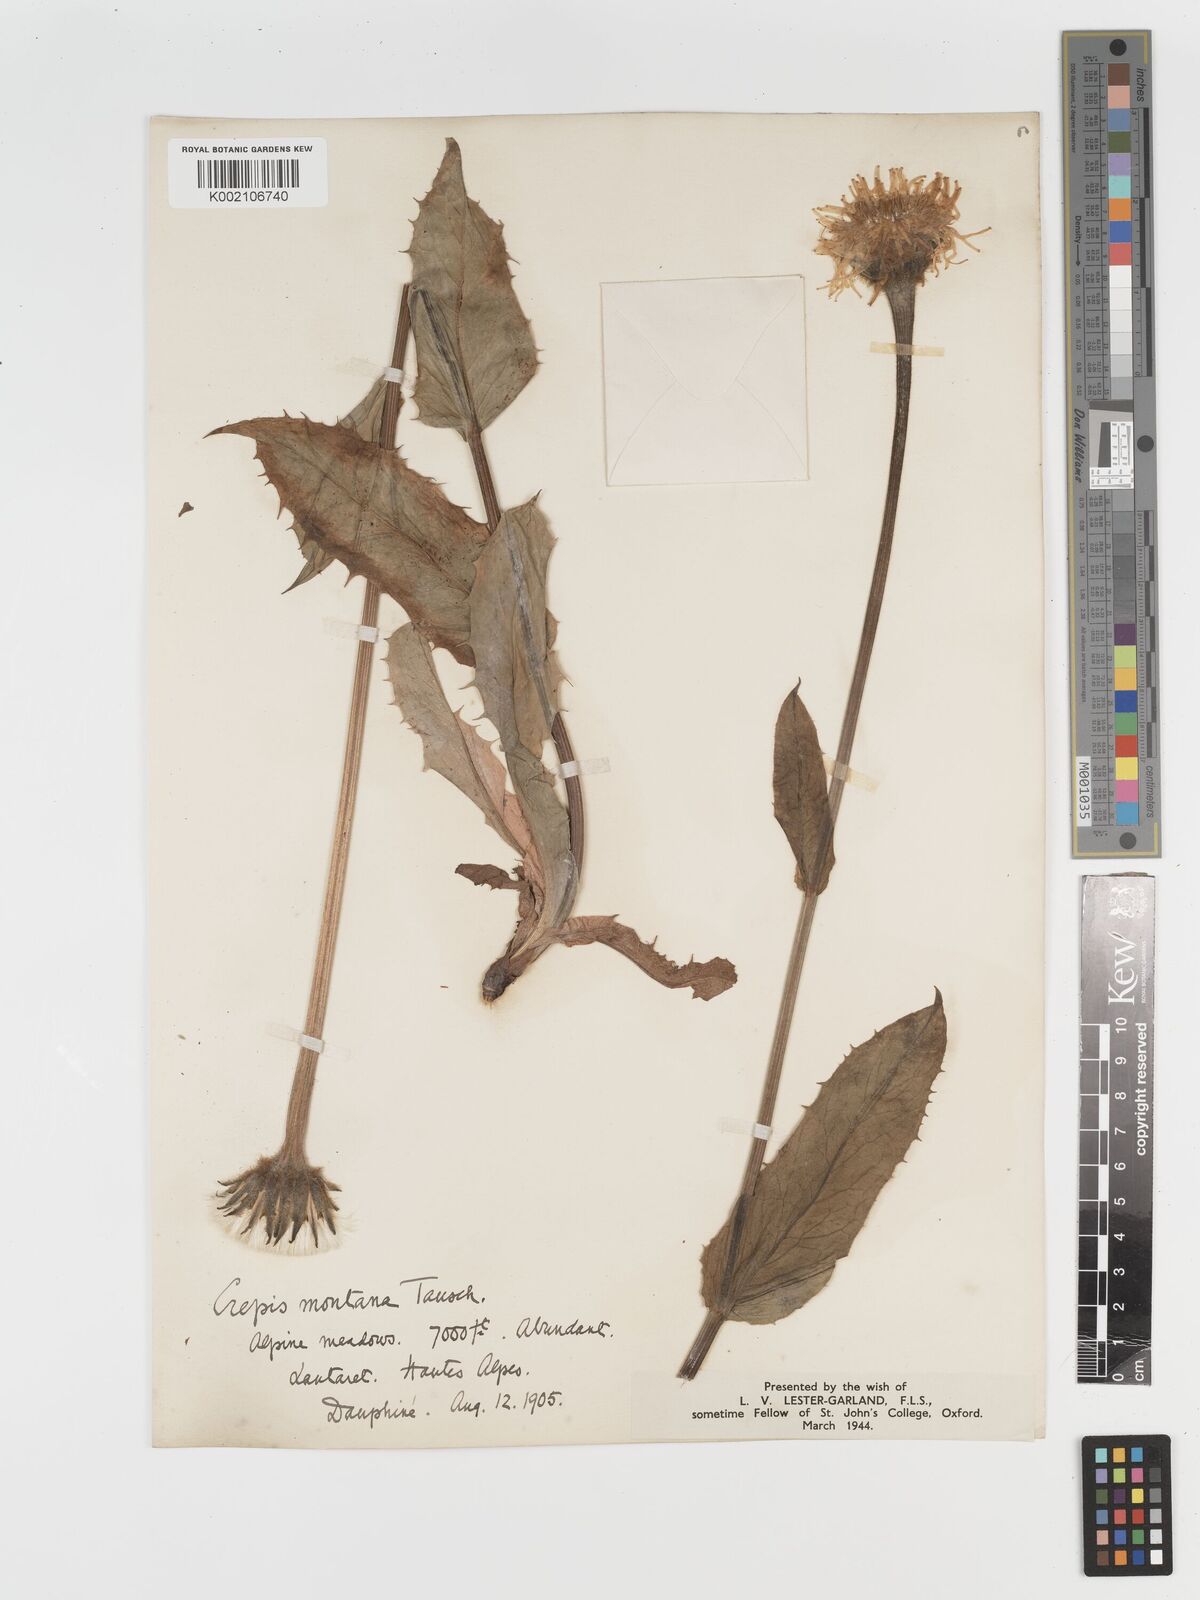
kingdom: Plantae
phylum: Tracheophyta
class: Magnoliopsida
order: Asterales
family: Asteraceae
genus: Crepis
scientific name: Crepis pontana
